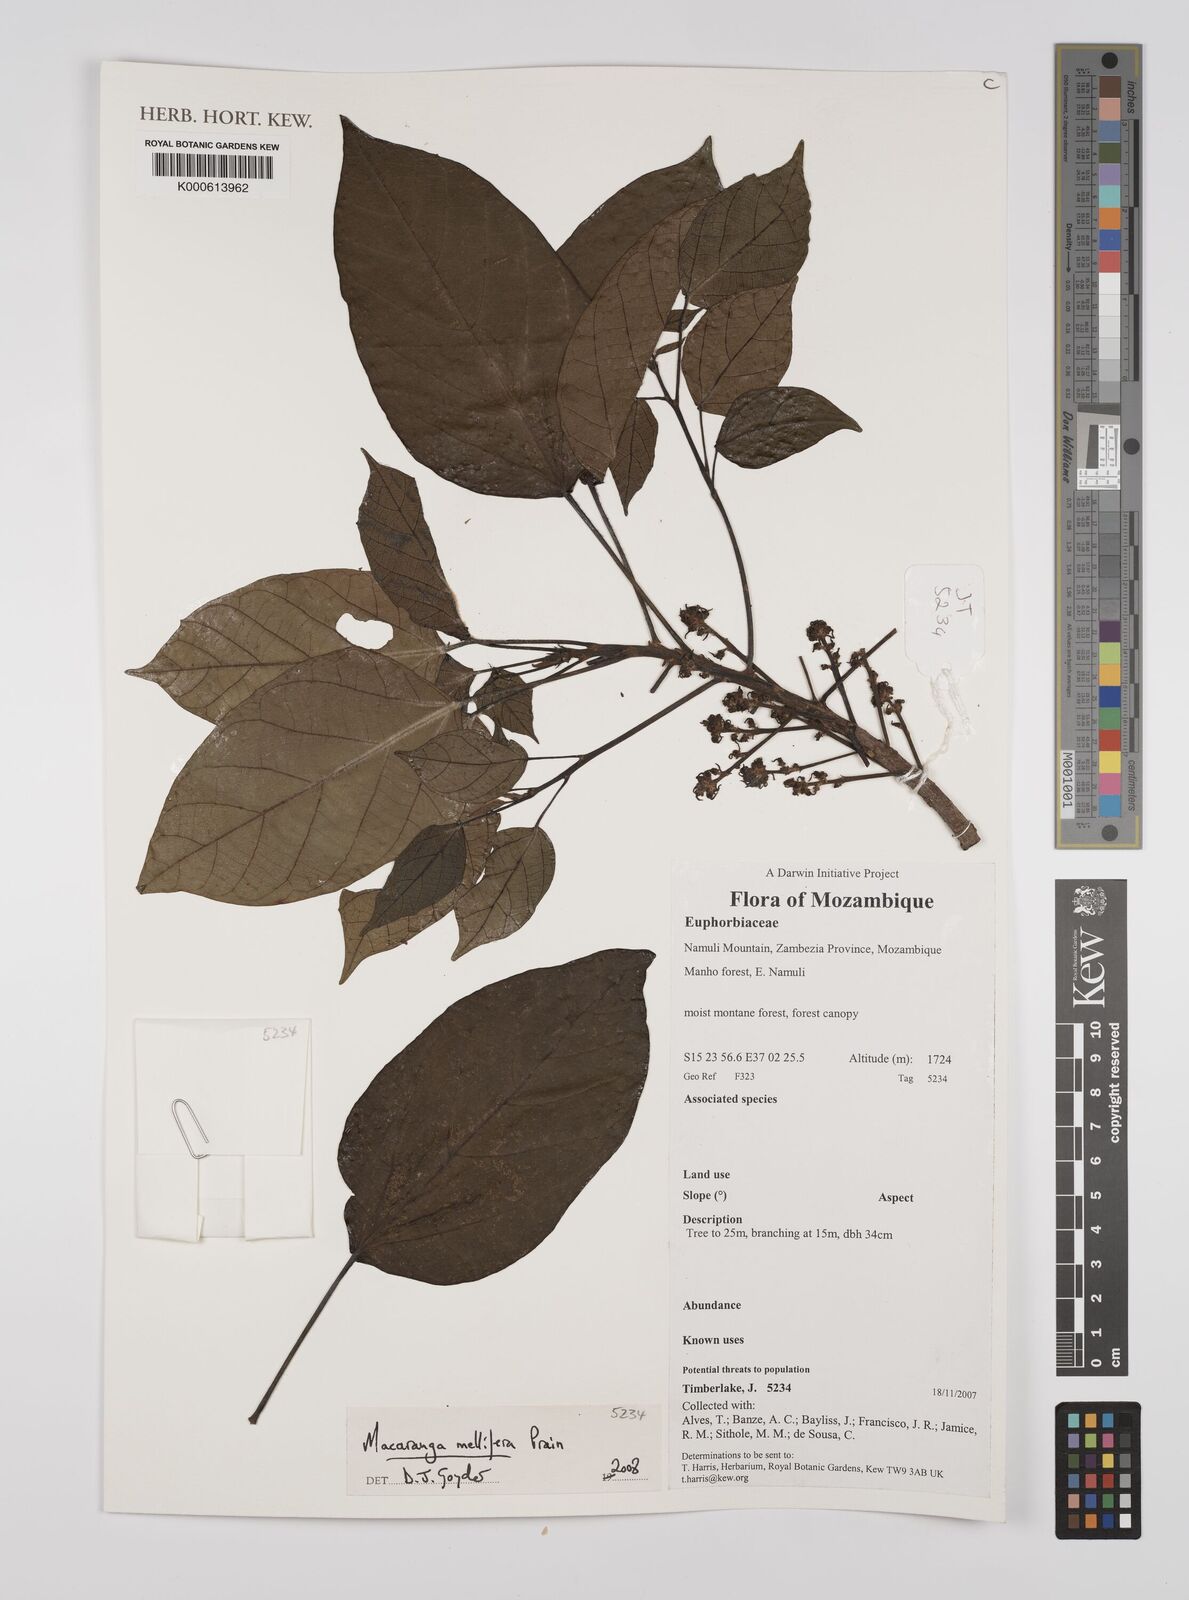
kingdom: Plantae
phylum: Tracheophyta
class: Magnoliopsida
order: Malpighiales
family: Euphorbiaceae
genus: Macaranga
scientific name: Macaranga mellifera
